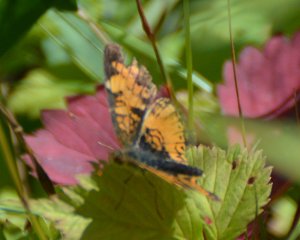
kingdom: Animalia
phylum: Arthropoda
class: Insecta
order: Lepidoptera
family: Nymphalidae
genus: Phyciodes
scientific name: Phyciodes tharos
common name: Northern Crescent
